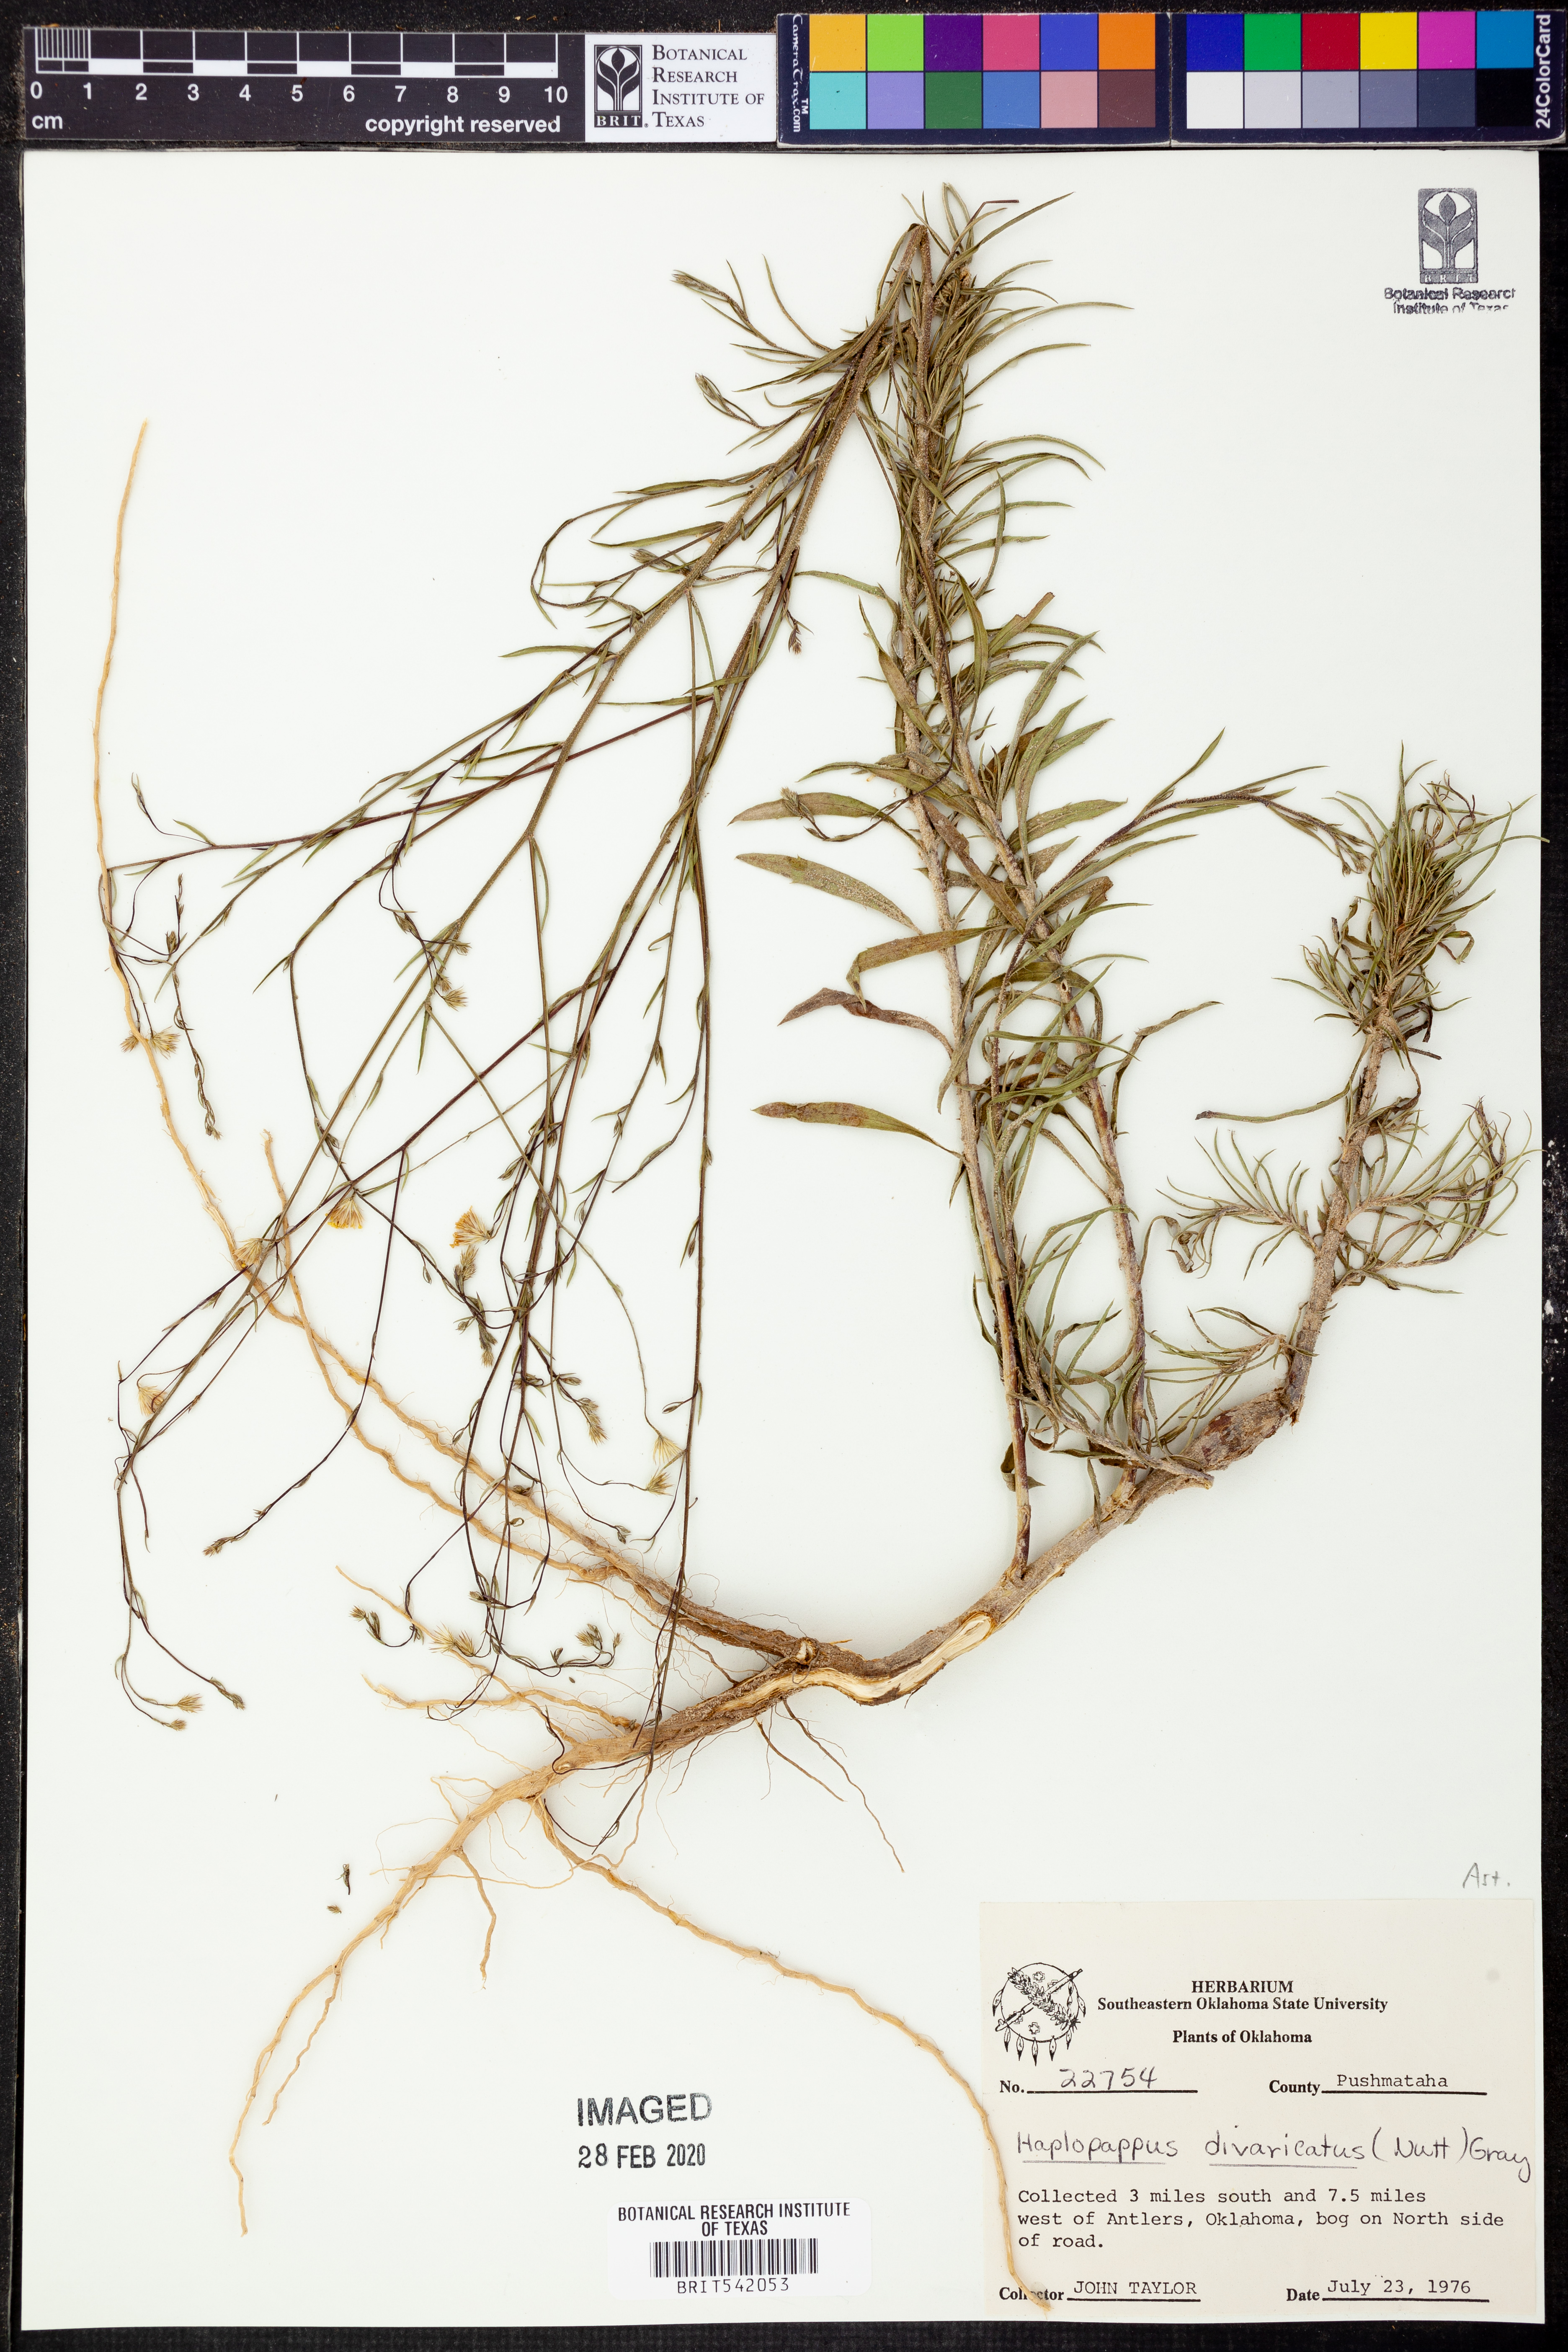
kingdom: Plantae
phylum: Tracheophyta
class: Magnoliopsida
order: Asterales
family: Asteraceae
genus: Croptilon
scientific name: Croptilon divaricatum
